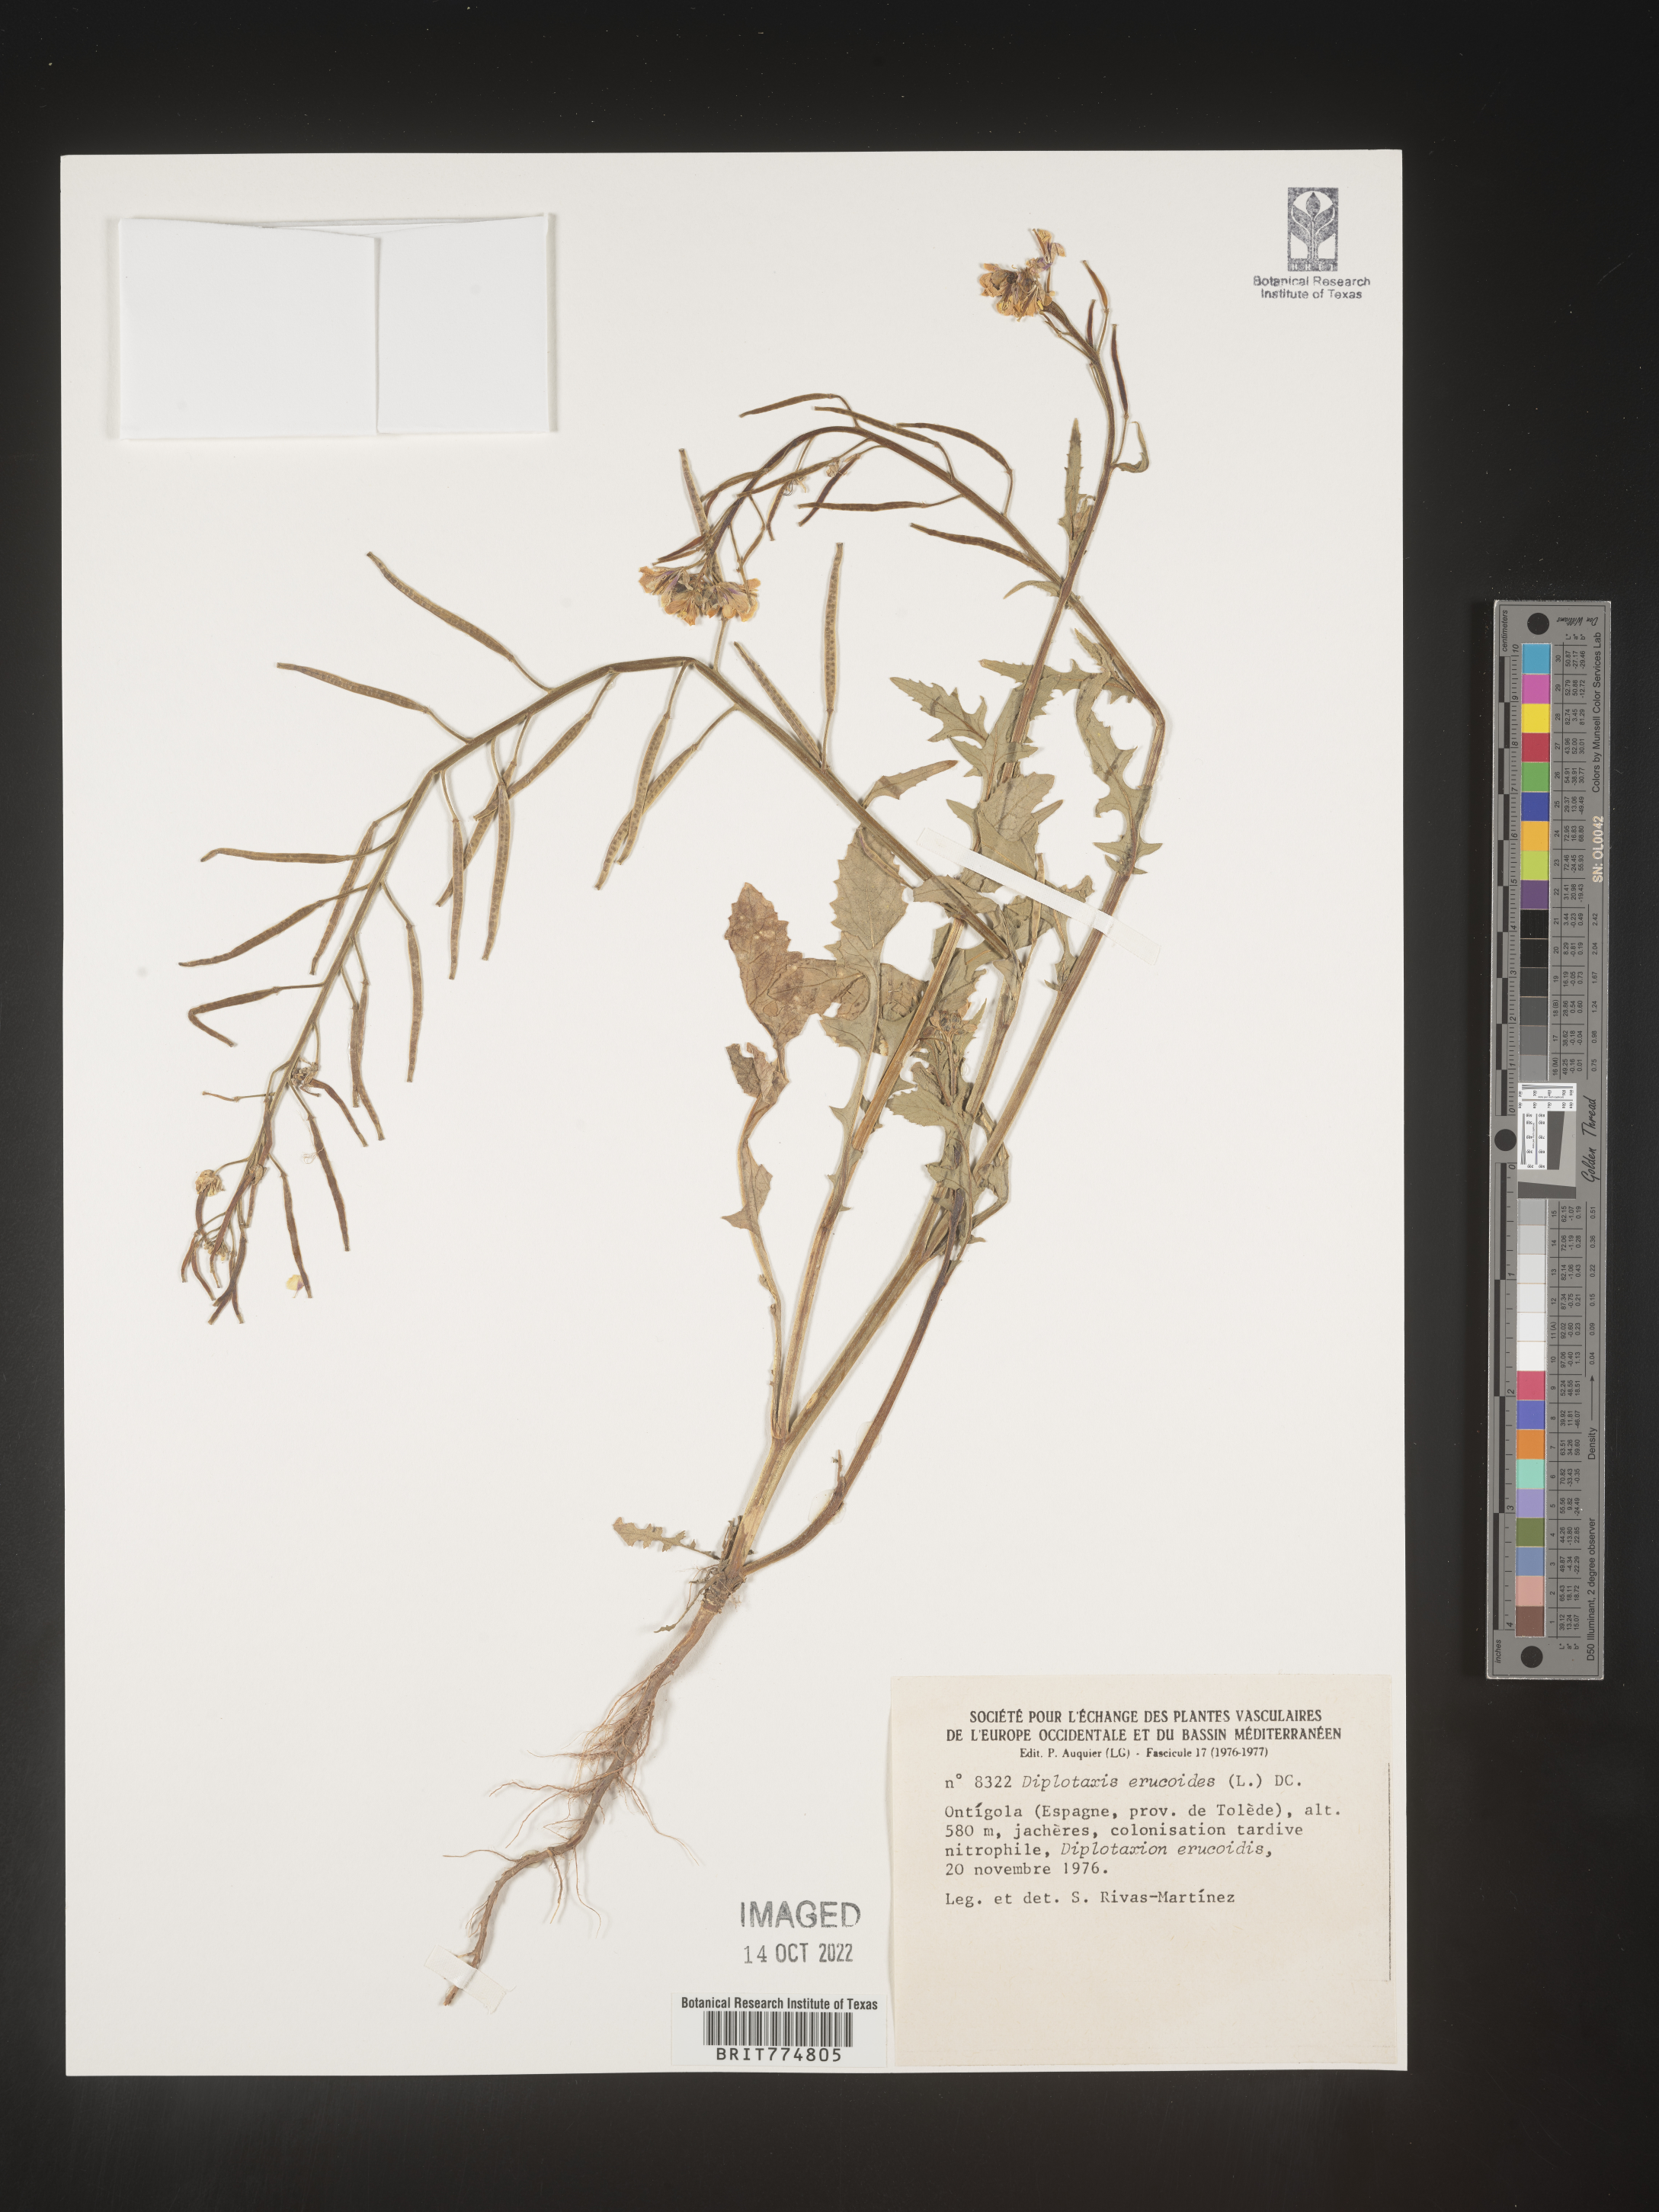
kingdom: Plantae
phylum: Tracheophyta
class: Magnoliopsida
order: Brassicales
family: Brassicaceae
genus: Diplotaxis
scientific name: Diplotaxis
